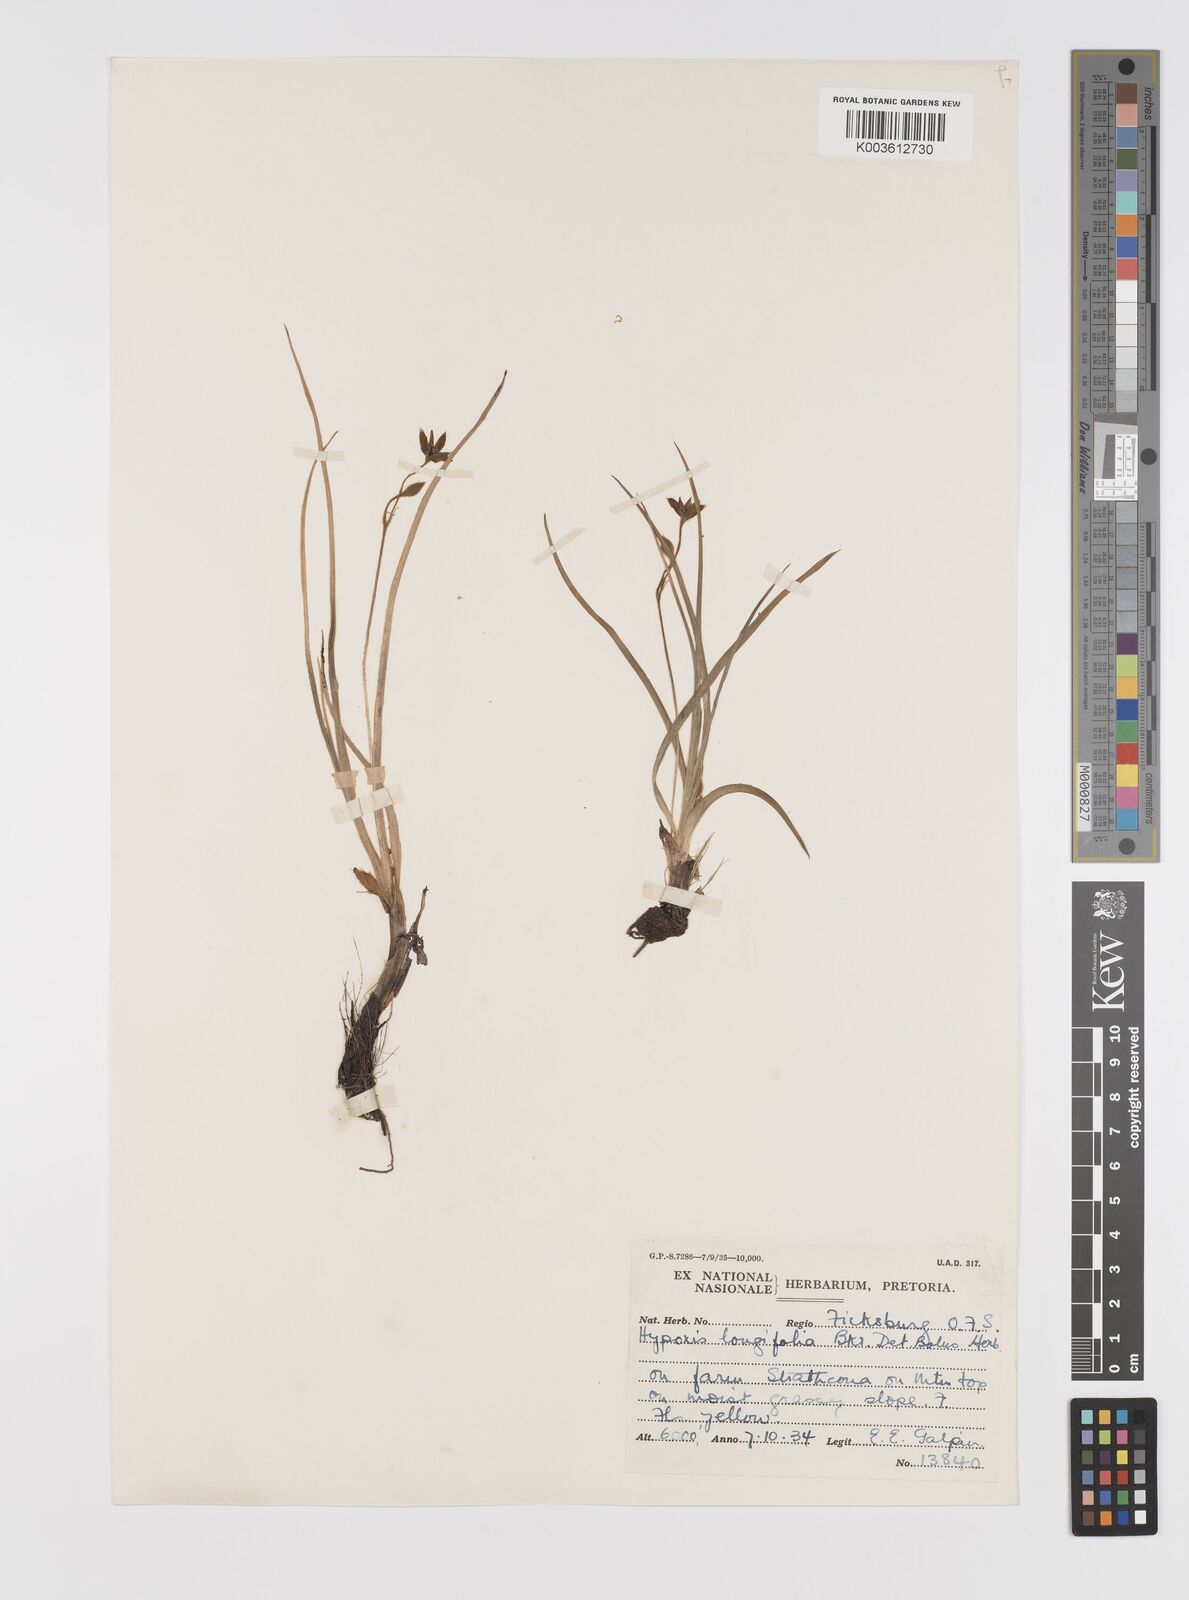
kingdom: Plantae
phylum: Tracheophyta
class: Liliopsida
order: Asparagales
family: Hypoxidaceae
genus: Hypoxis
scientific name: Hypoxis gerrardii
